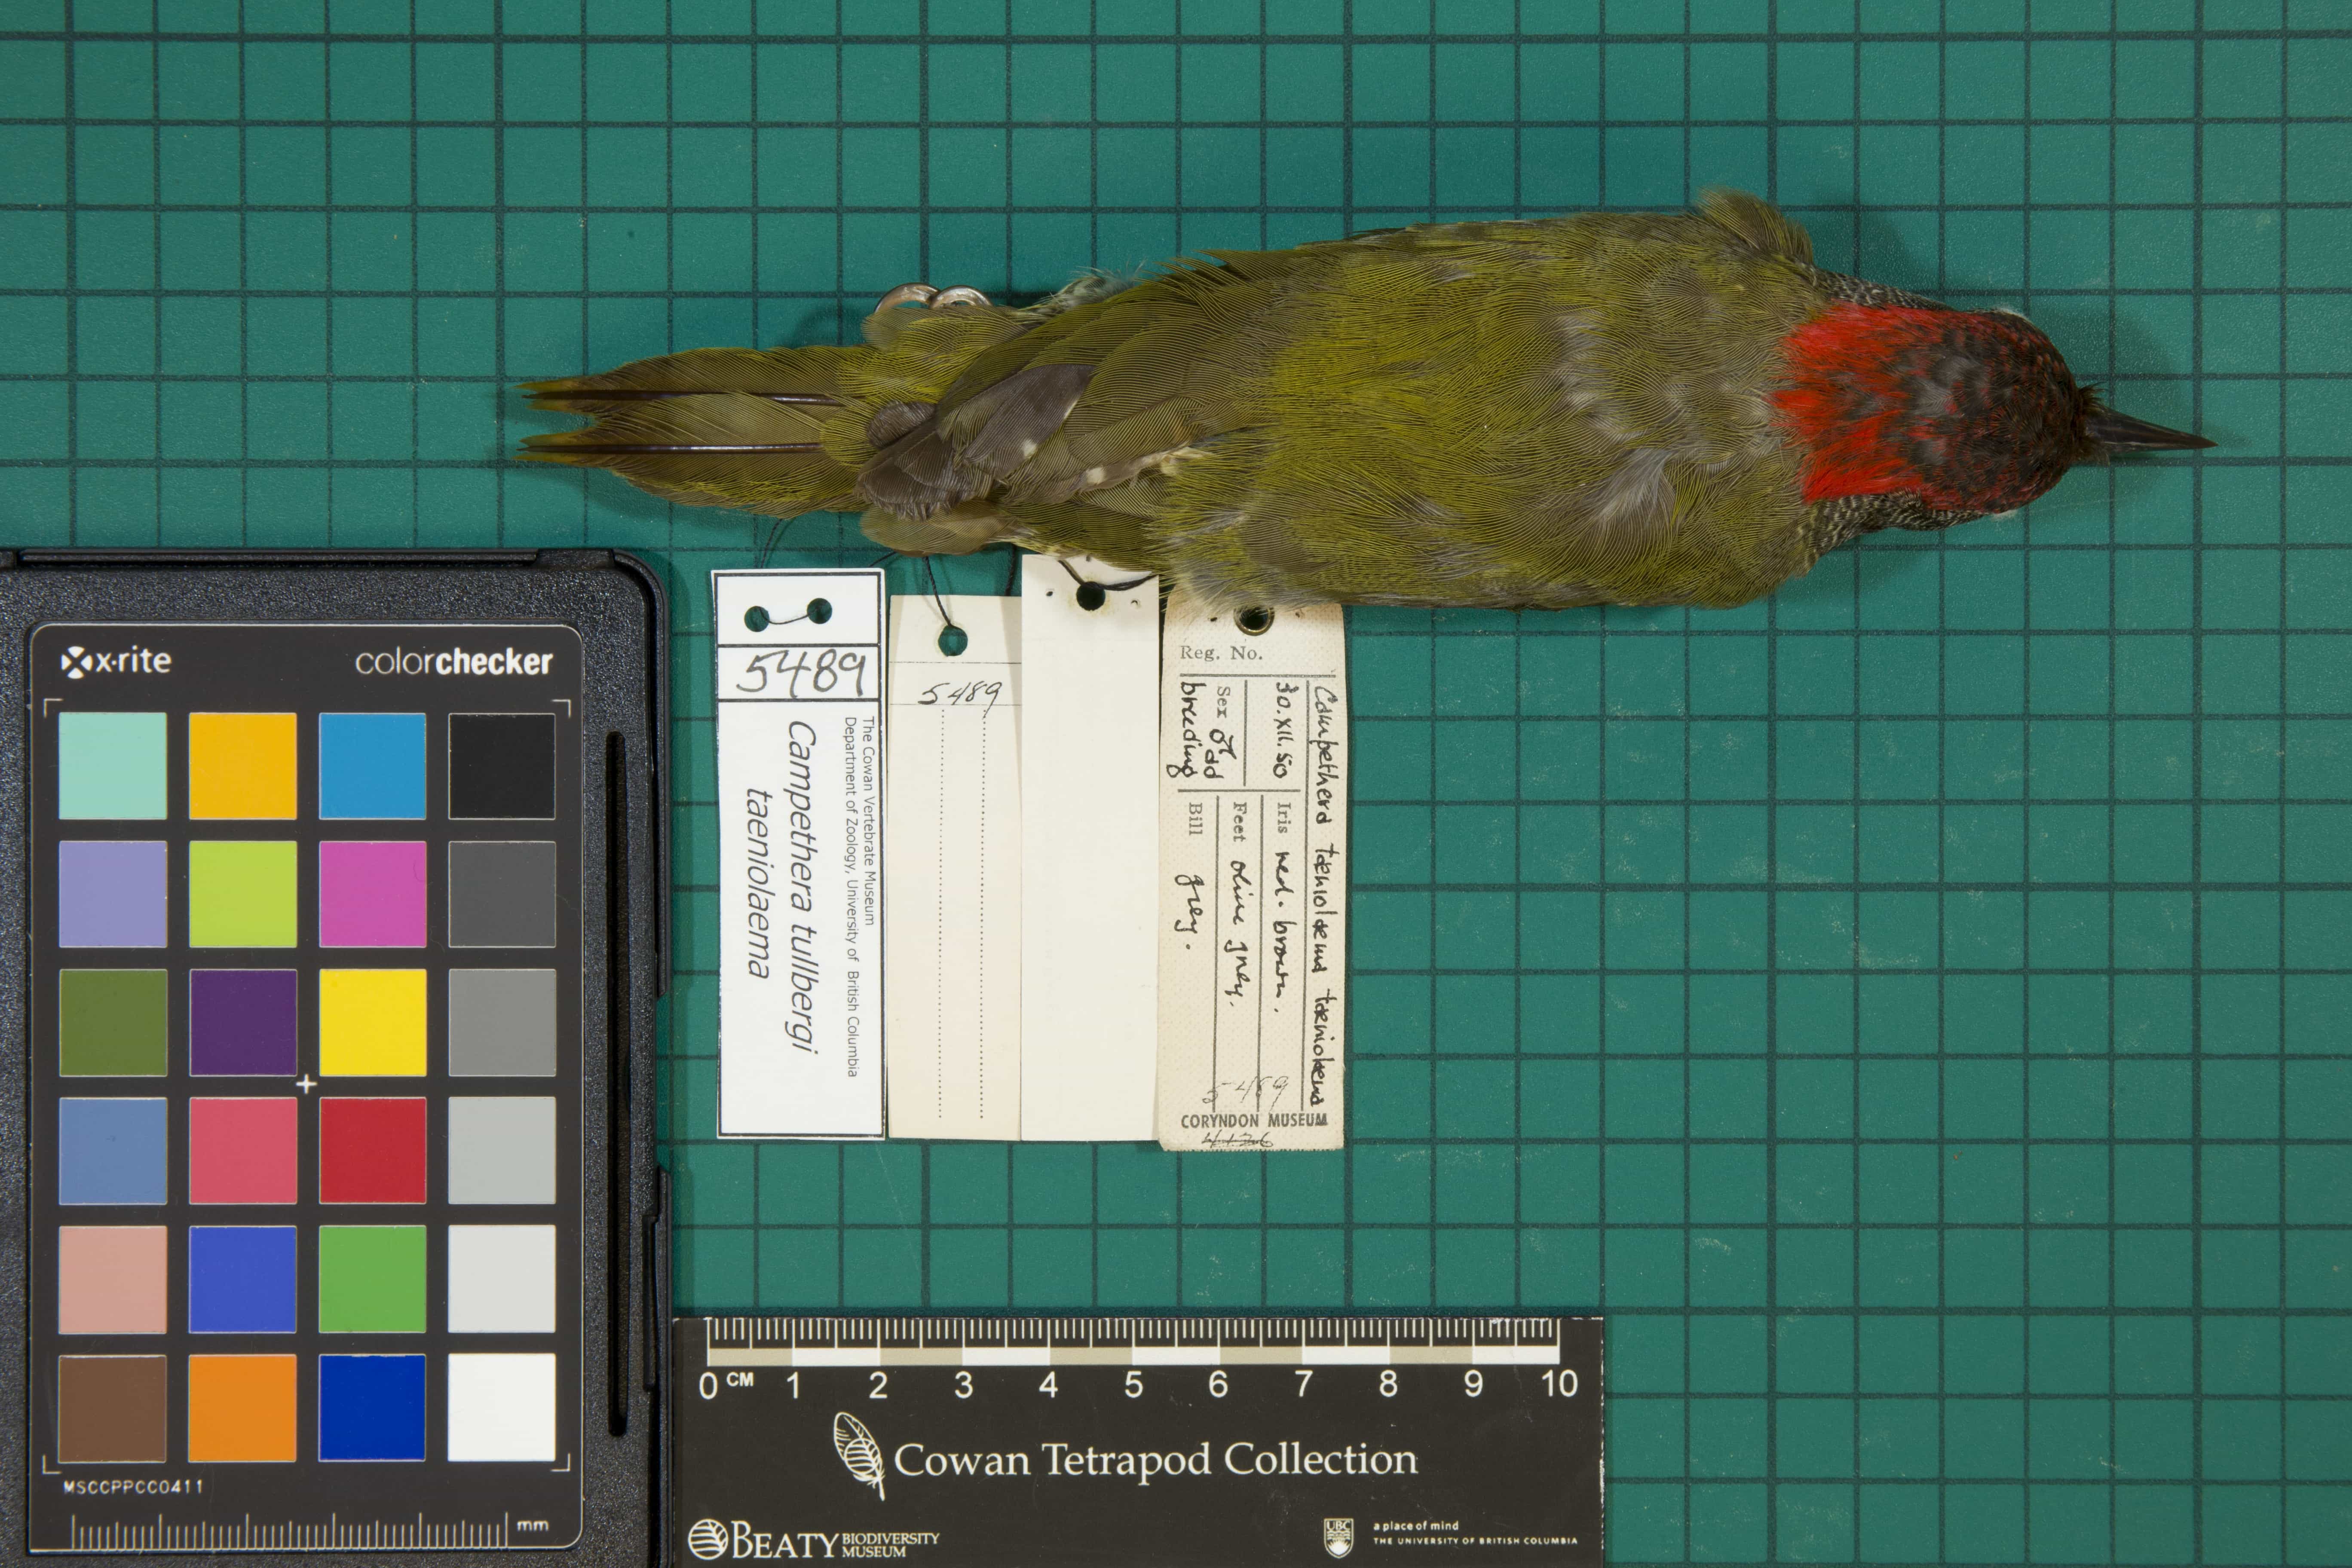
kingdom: Animalia
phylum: Chordata
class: Aves
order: Piciformes
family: Picidae
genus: Campethera
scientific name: Campethera taeniolaema
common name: Tullberg's Woodpecker
